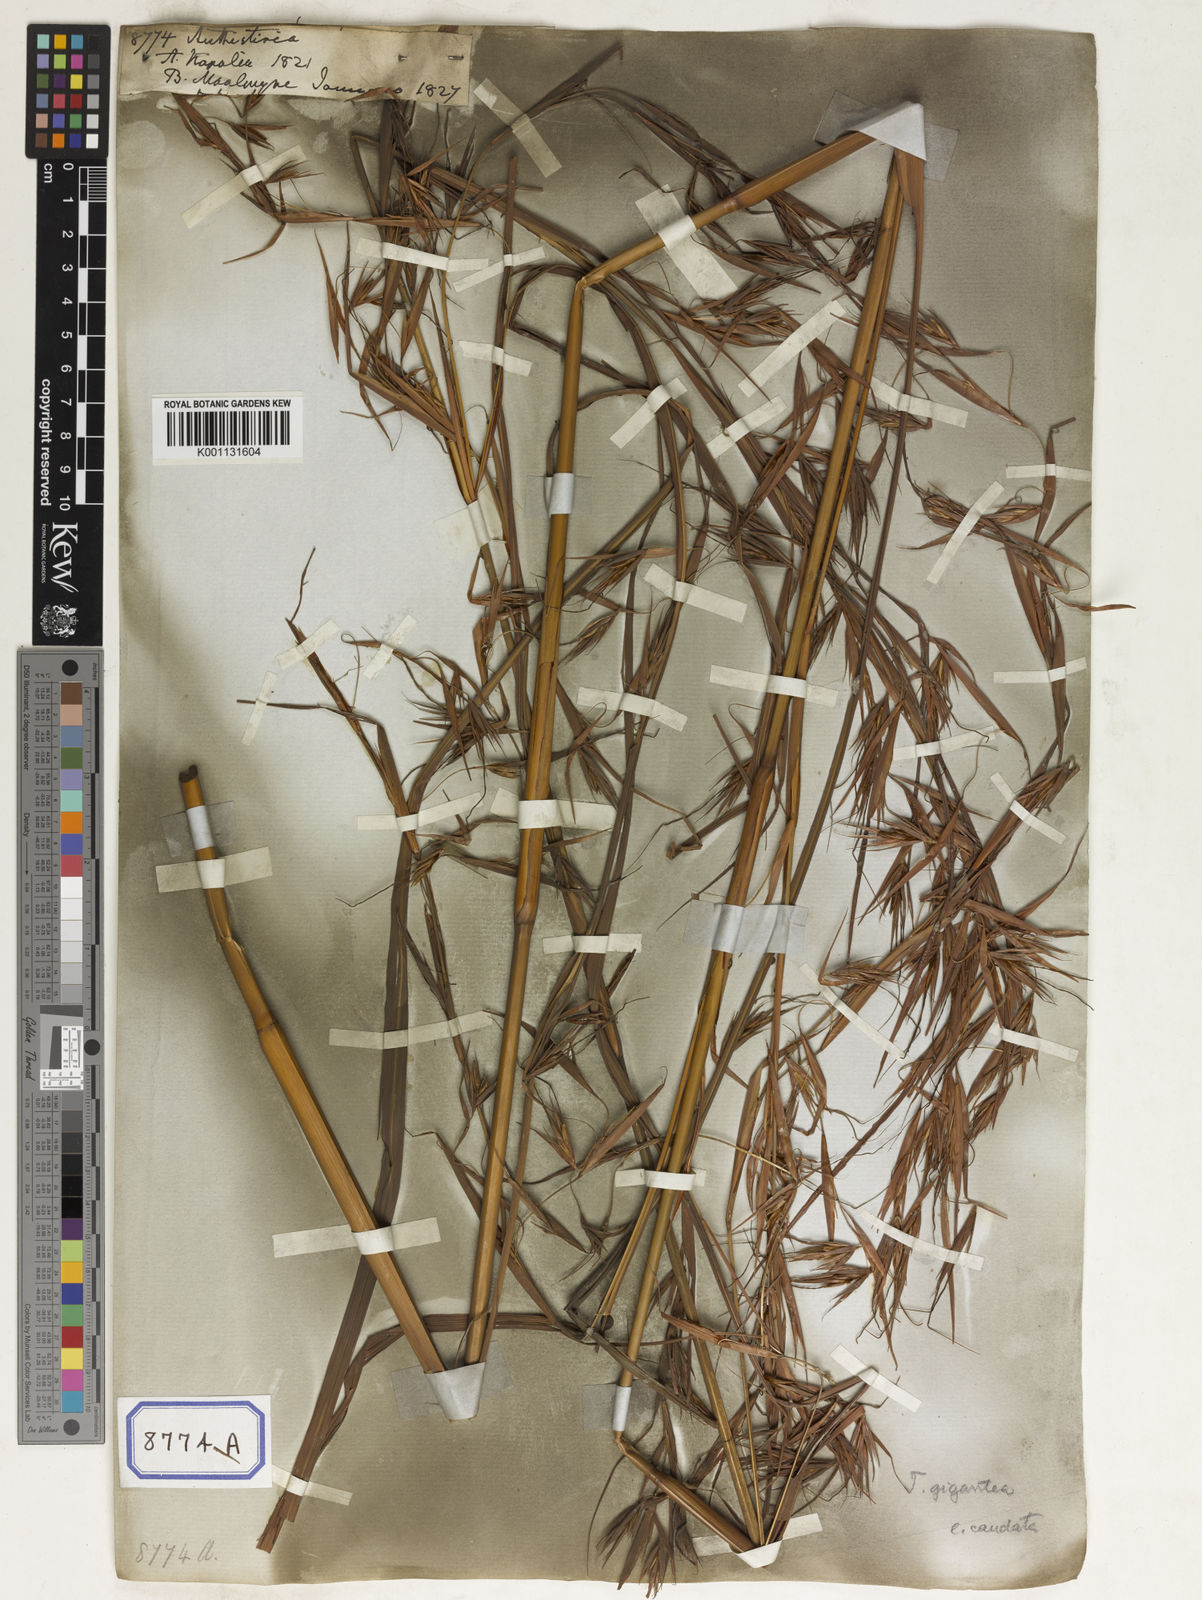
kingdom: Plantae
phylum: Tracheophyta
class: Liliopsida
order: Poales
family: Poaceae
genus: Themeda
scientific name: Themeda
